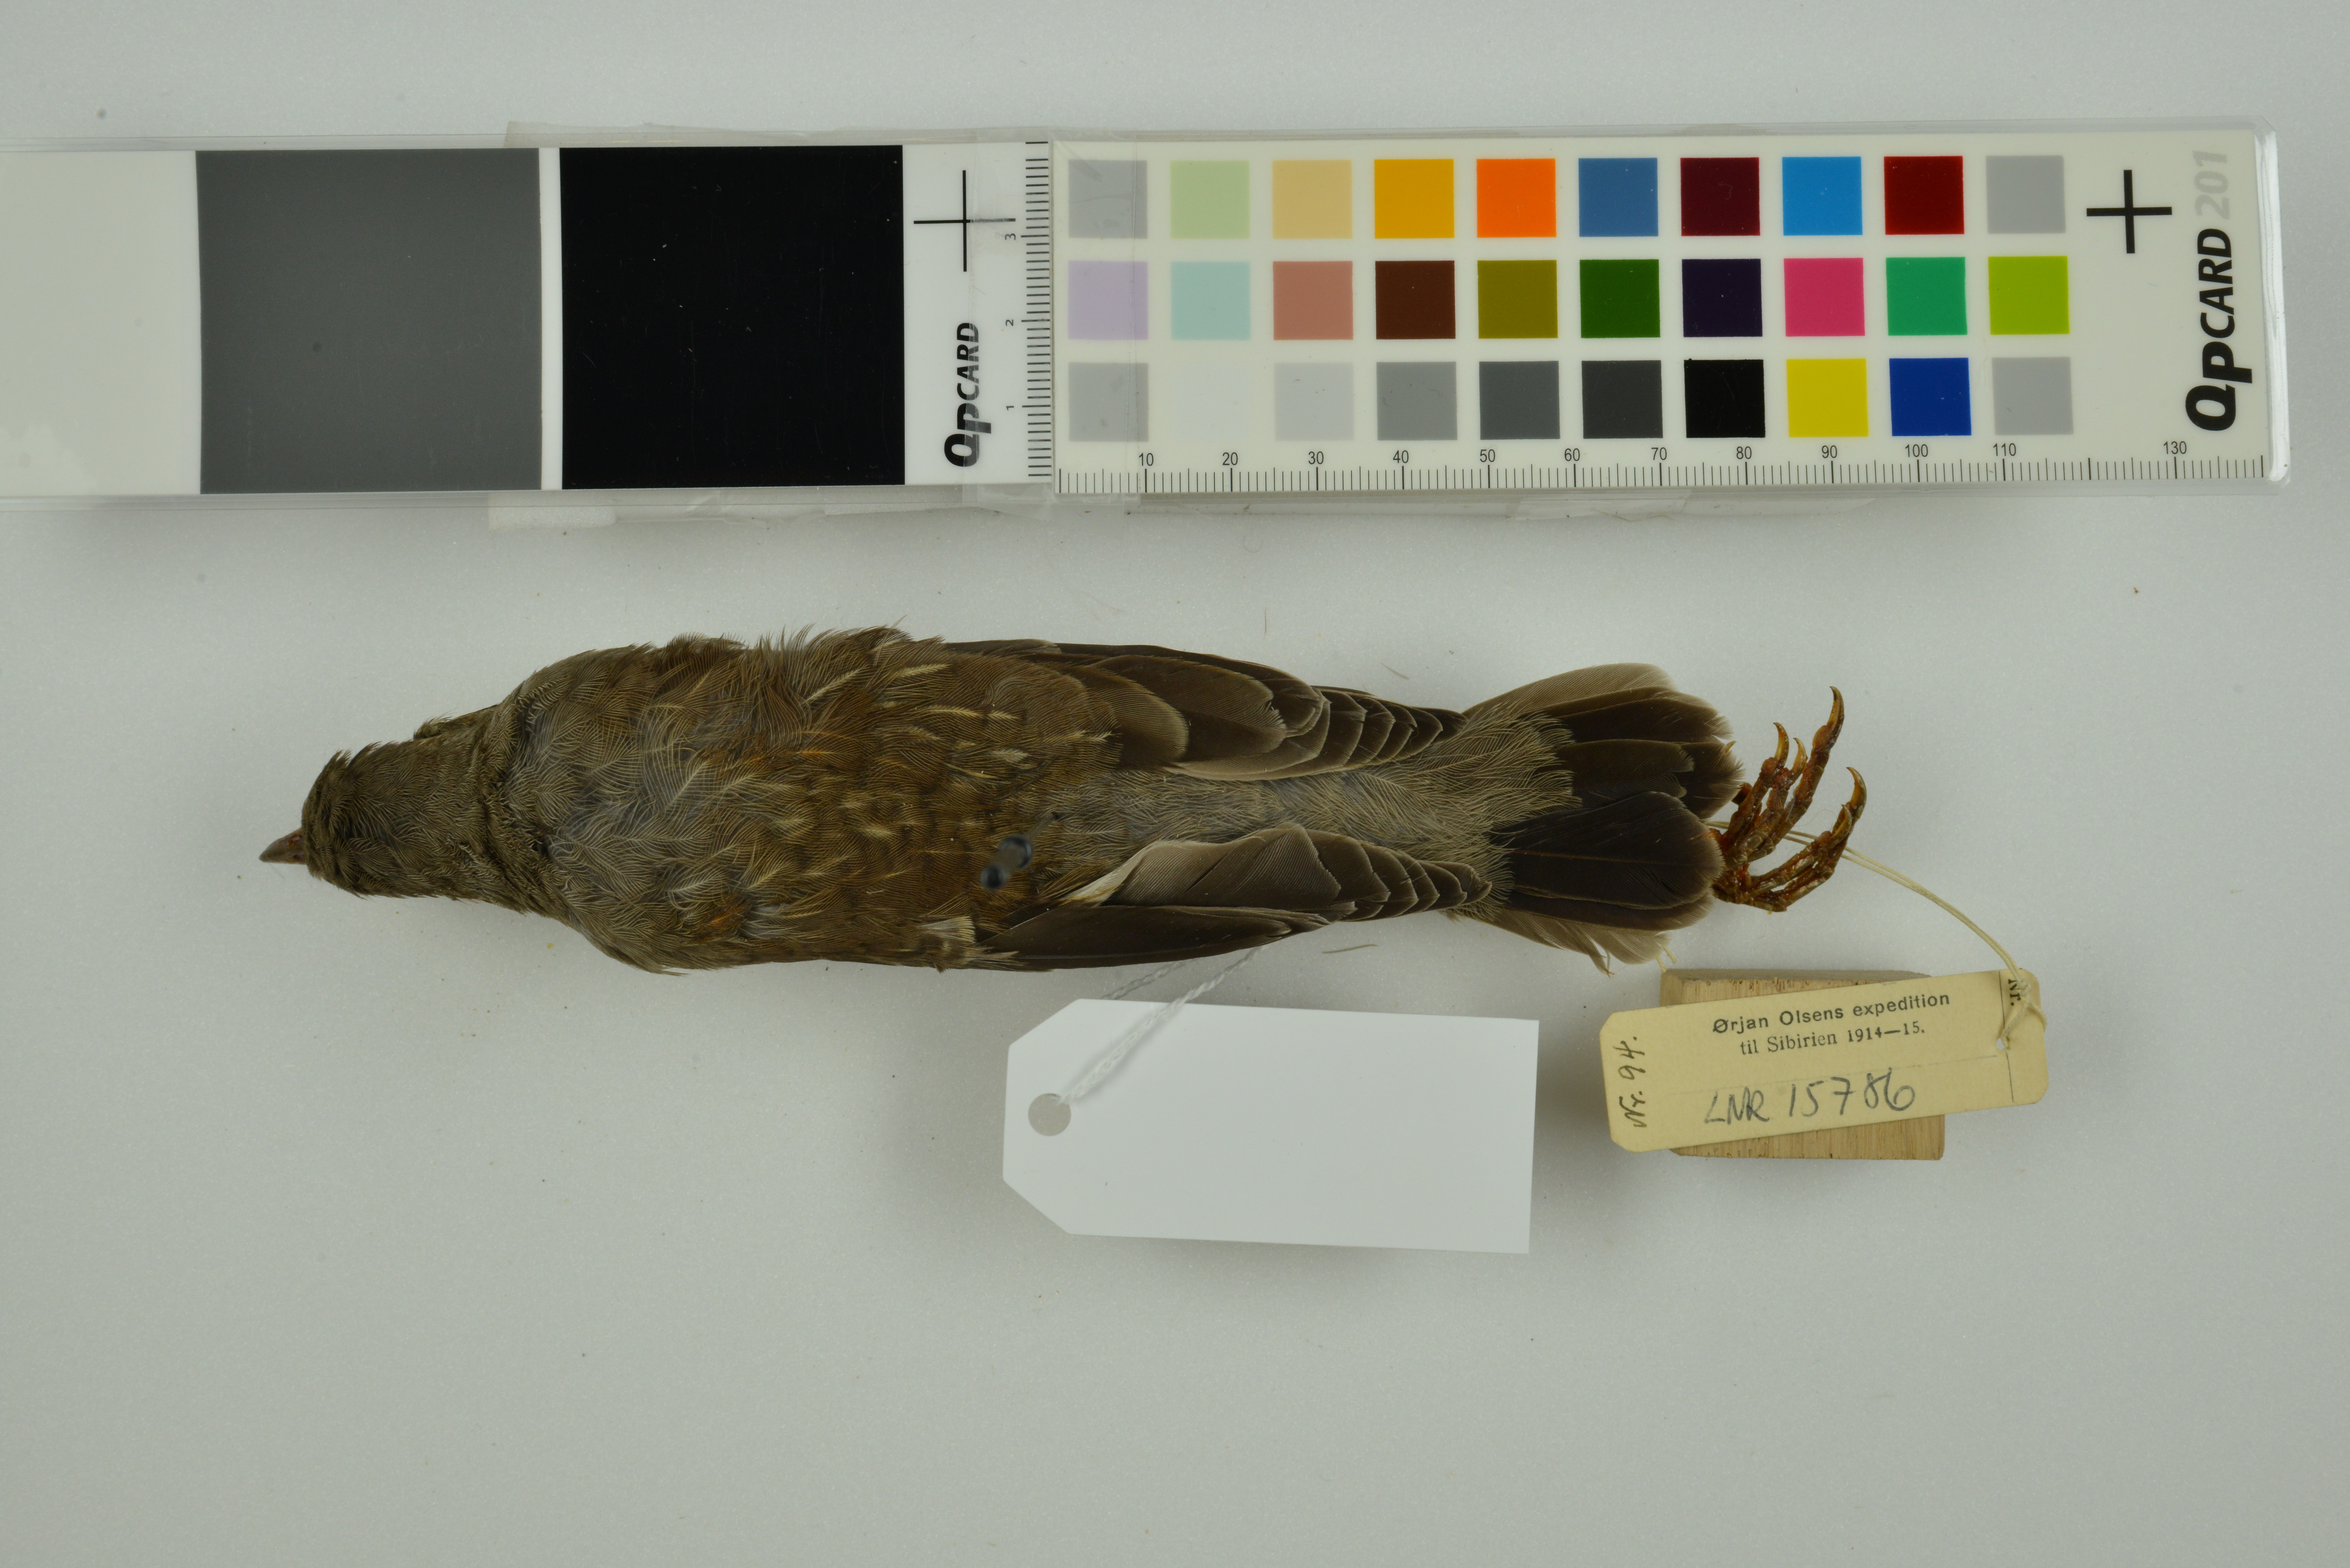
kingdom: Animalia
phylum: Chordata
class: Aves
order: Passeriformes
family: Turdidae
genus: Turdus
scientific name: Turdus pilaris
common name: Fieldfare
